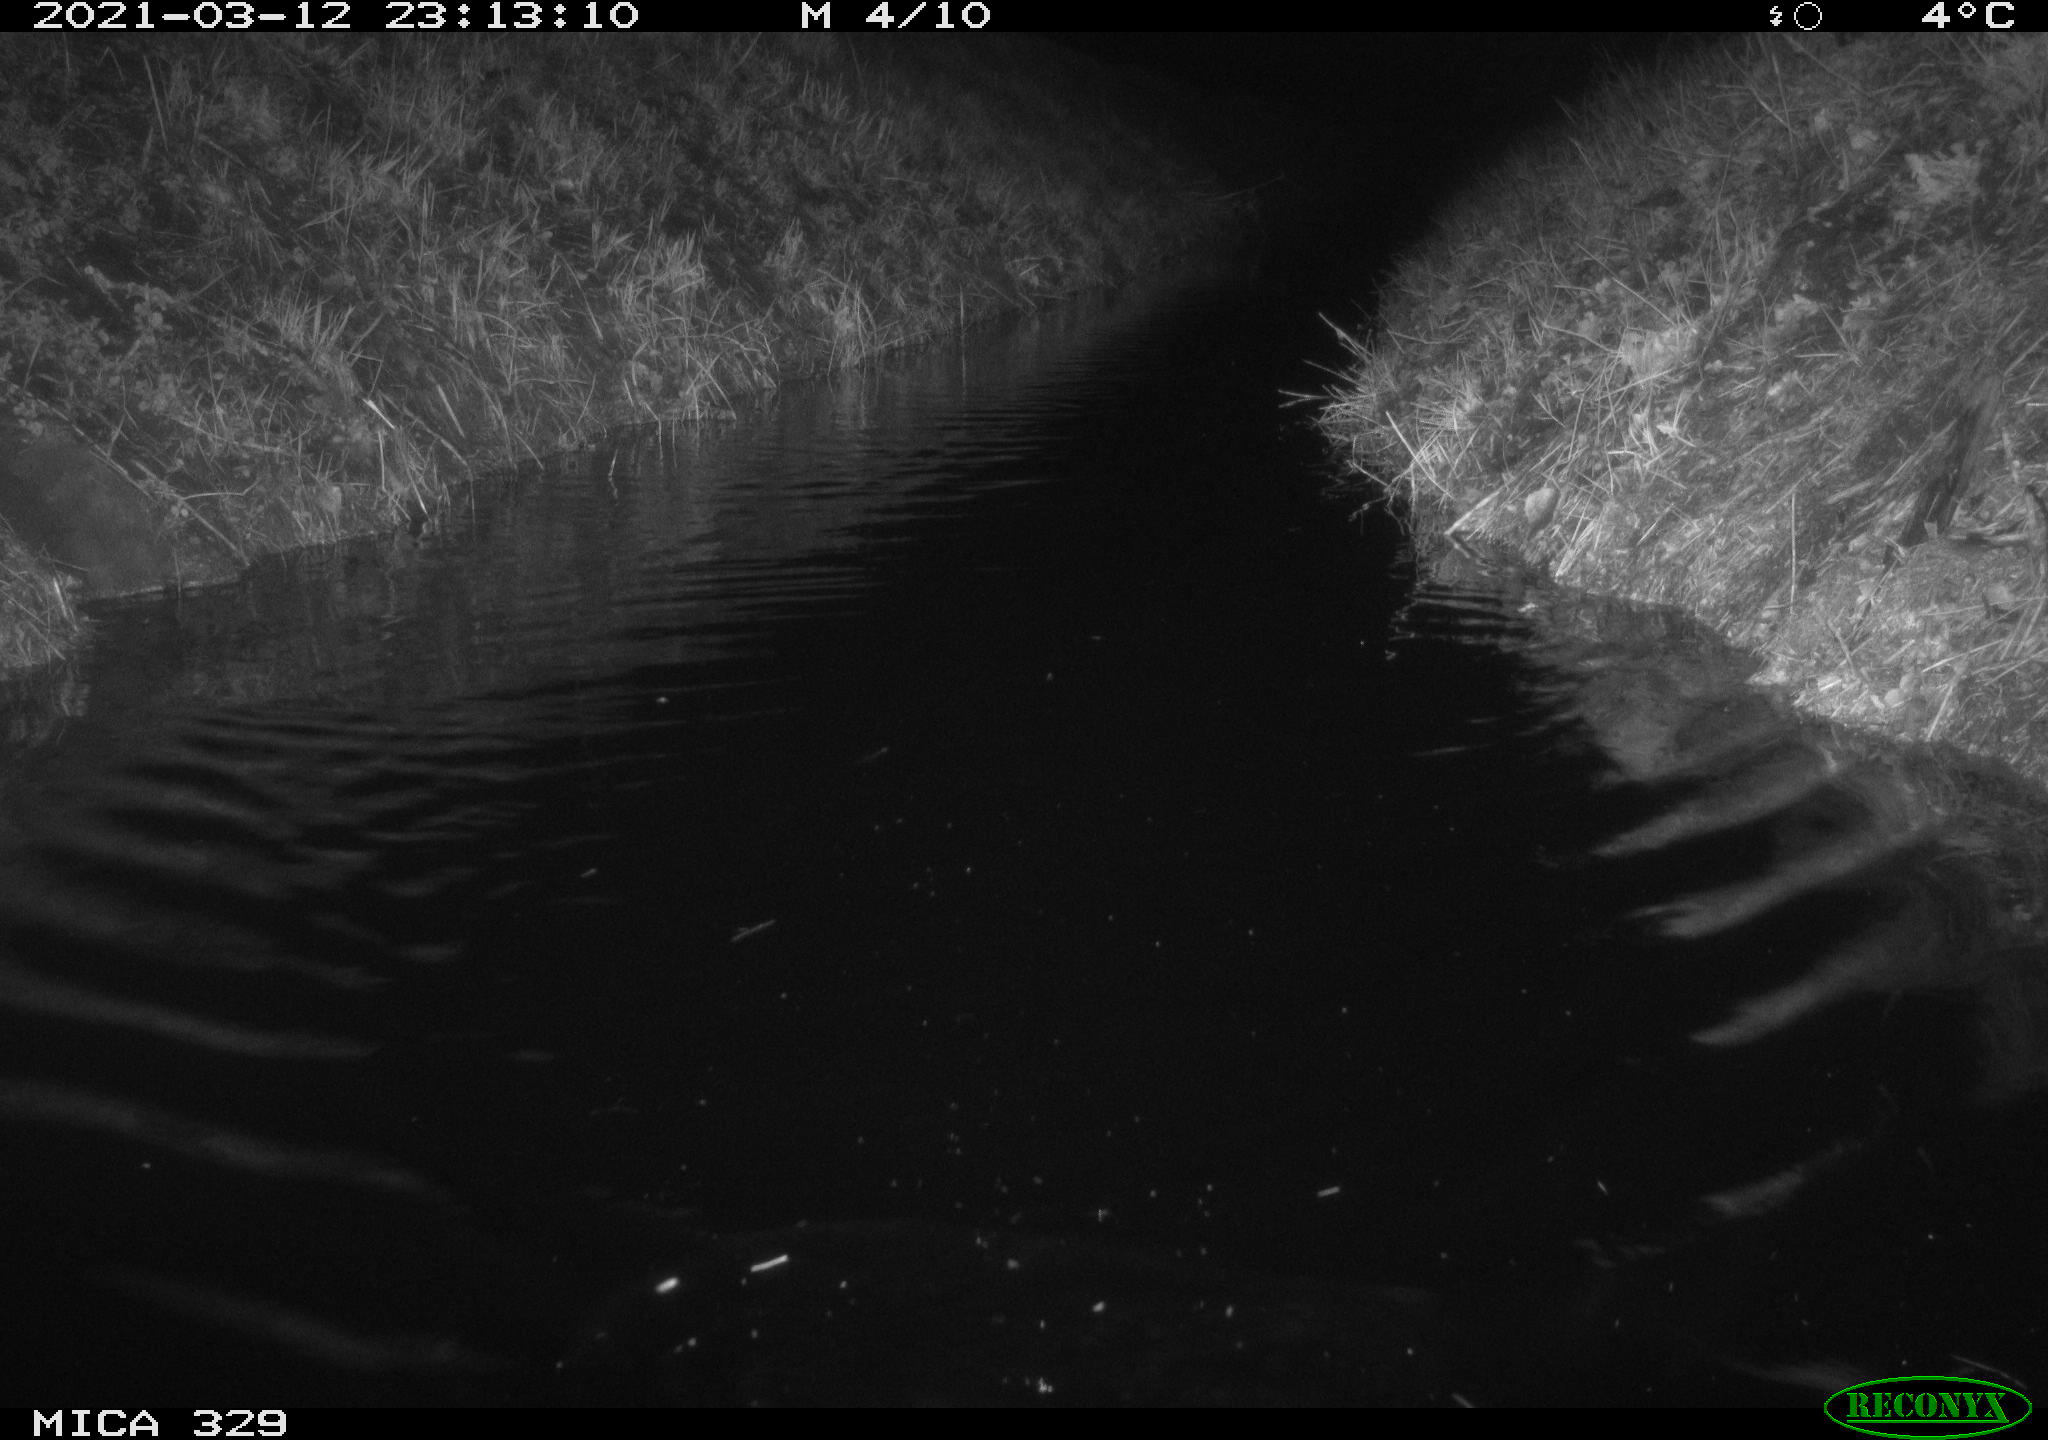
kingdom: Animalia
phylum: Chordata
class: Mammalia
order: Rodentia
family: Cricetidae
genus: Ondatra
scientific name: Ondatra zibethicus
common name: Muskrat
